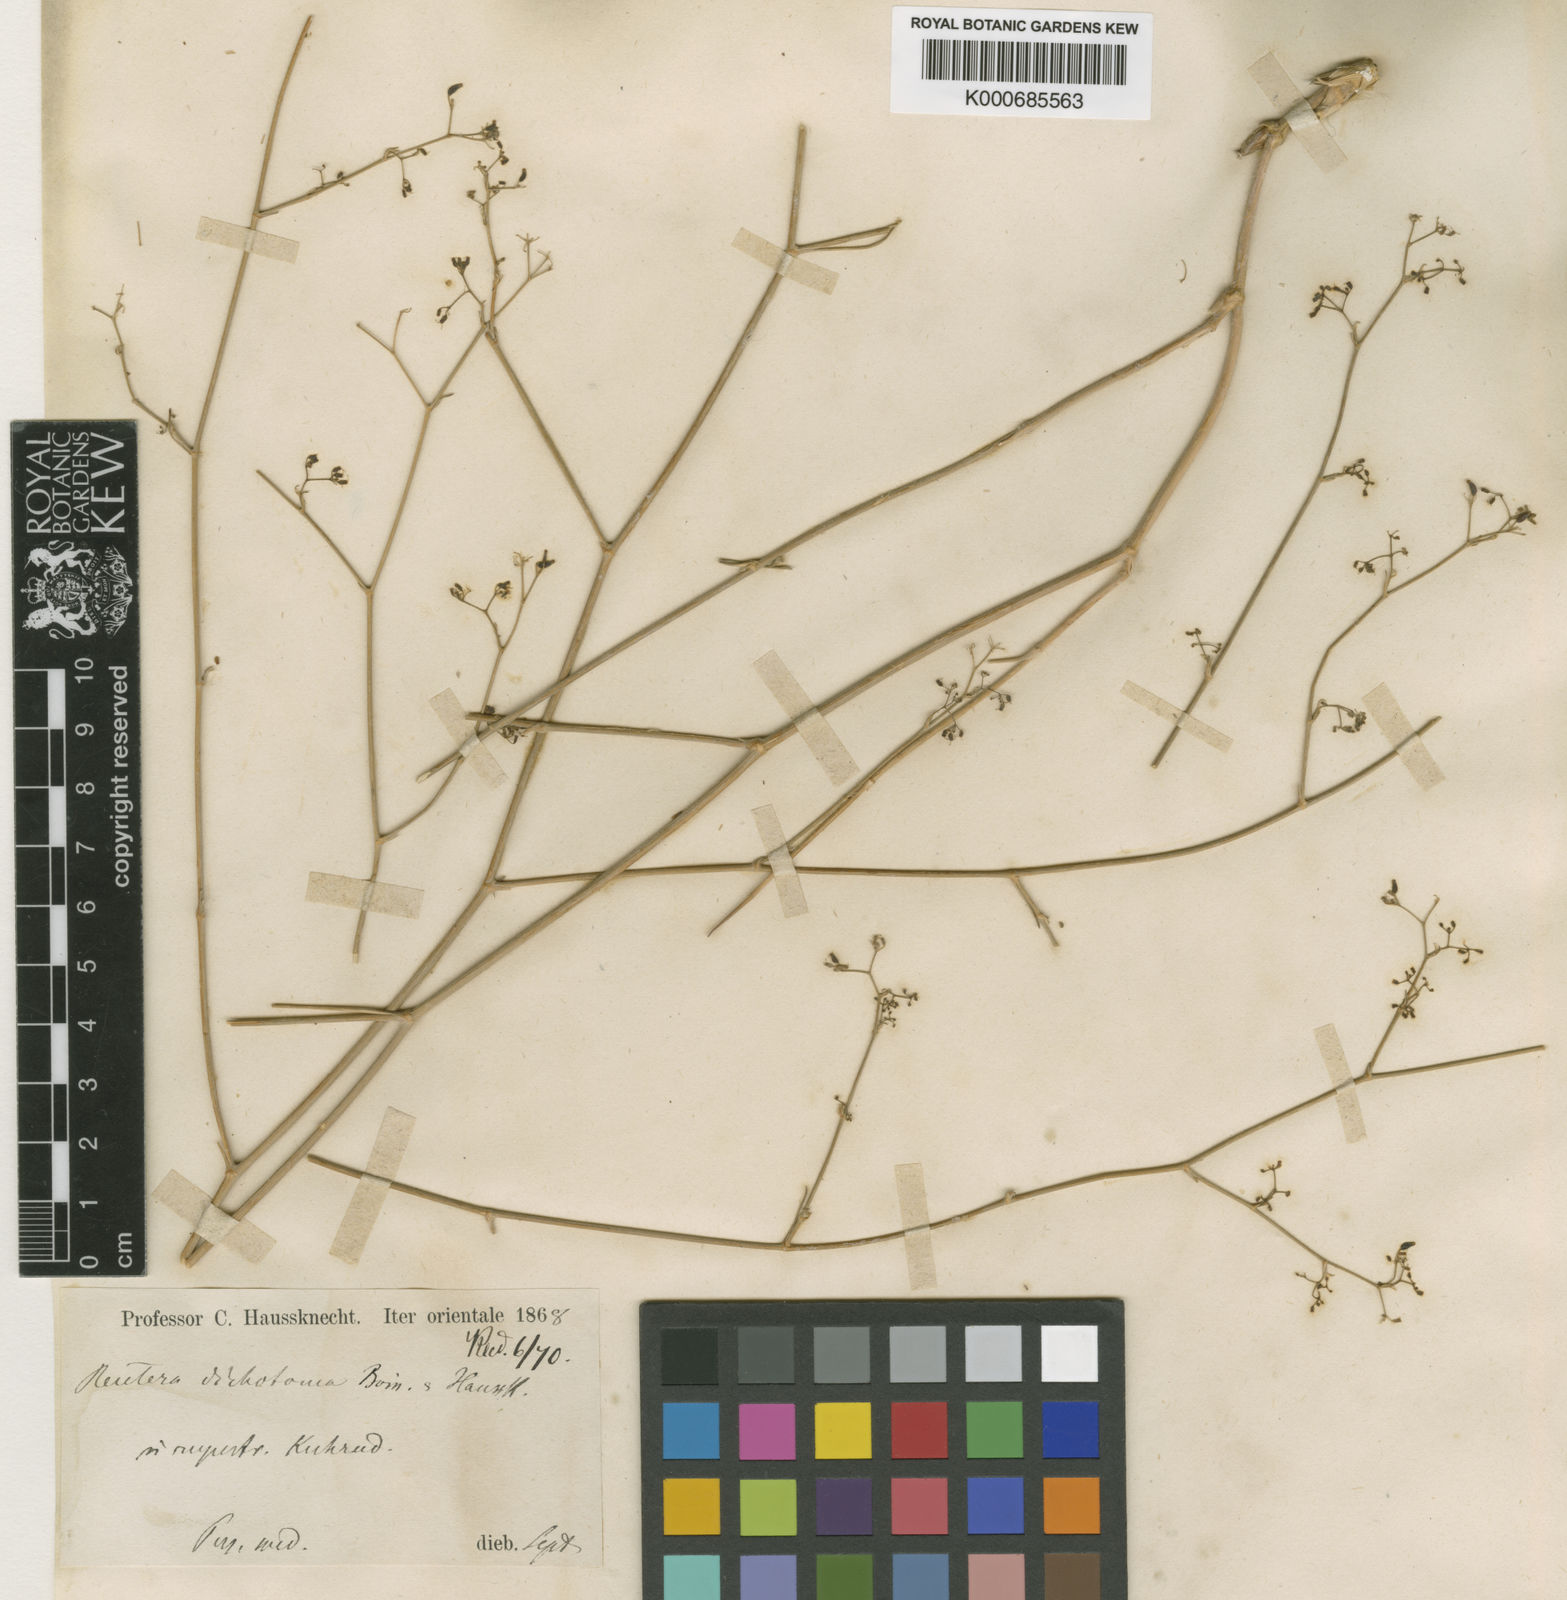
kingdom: Plantae
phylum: Tracheophyta
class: Magnoliopsida
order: Apiales
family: Apiaceae
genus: Pimpinella
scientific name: Pimpinella
